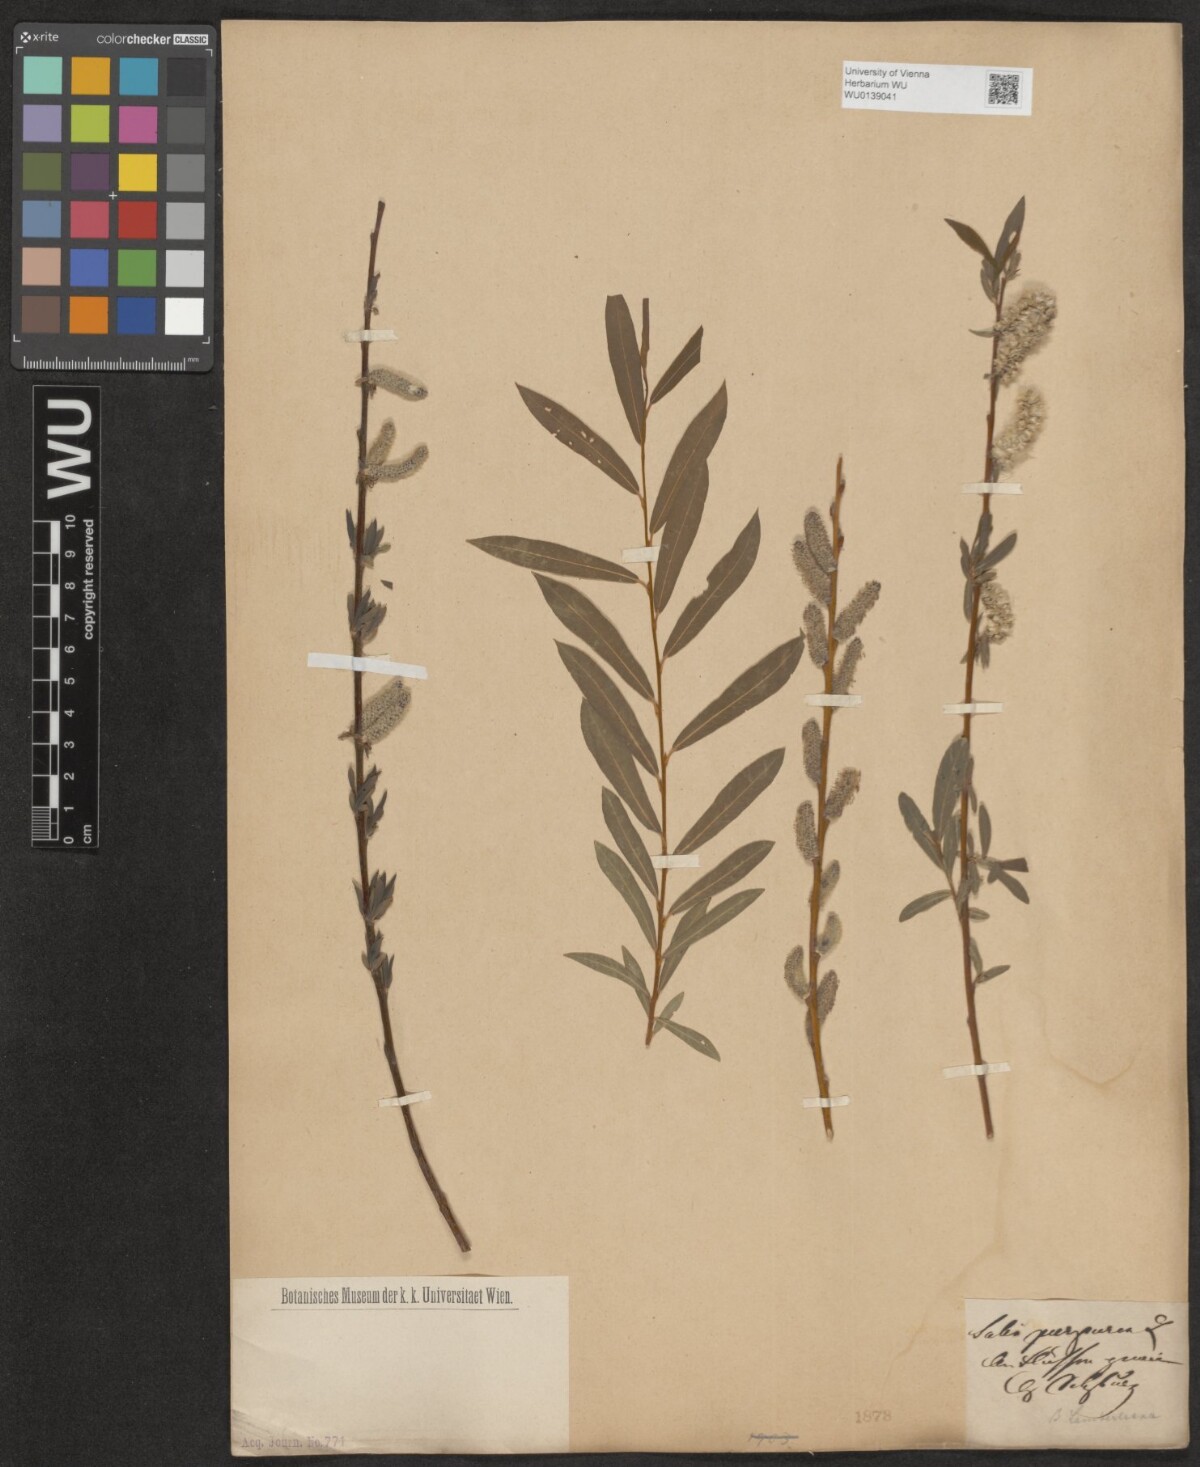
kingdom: Plantae
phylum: Tracheophyta
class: Magnoliopsida
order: Malpighiales
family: Salicaceae
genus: Salix
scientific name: Salix purpurea
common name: Purple willow
